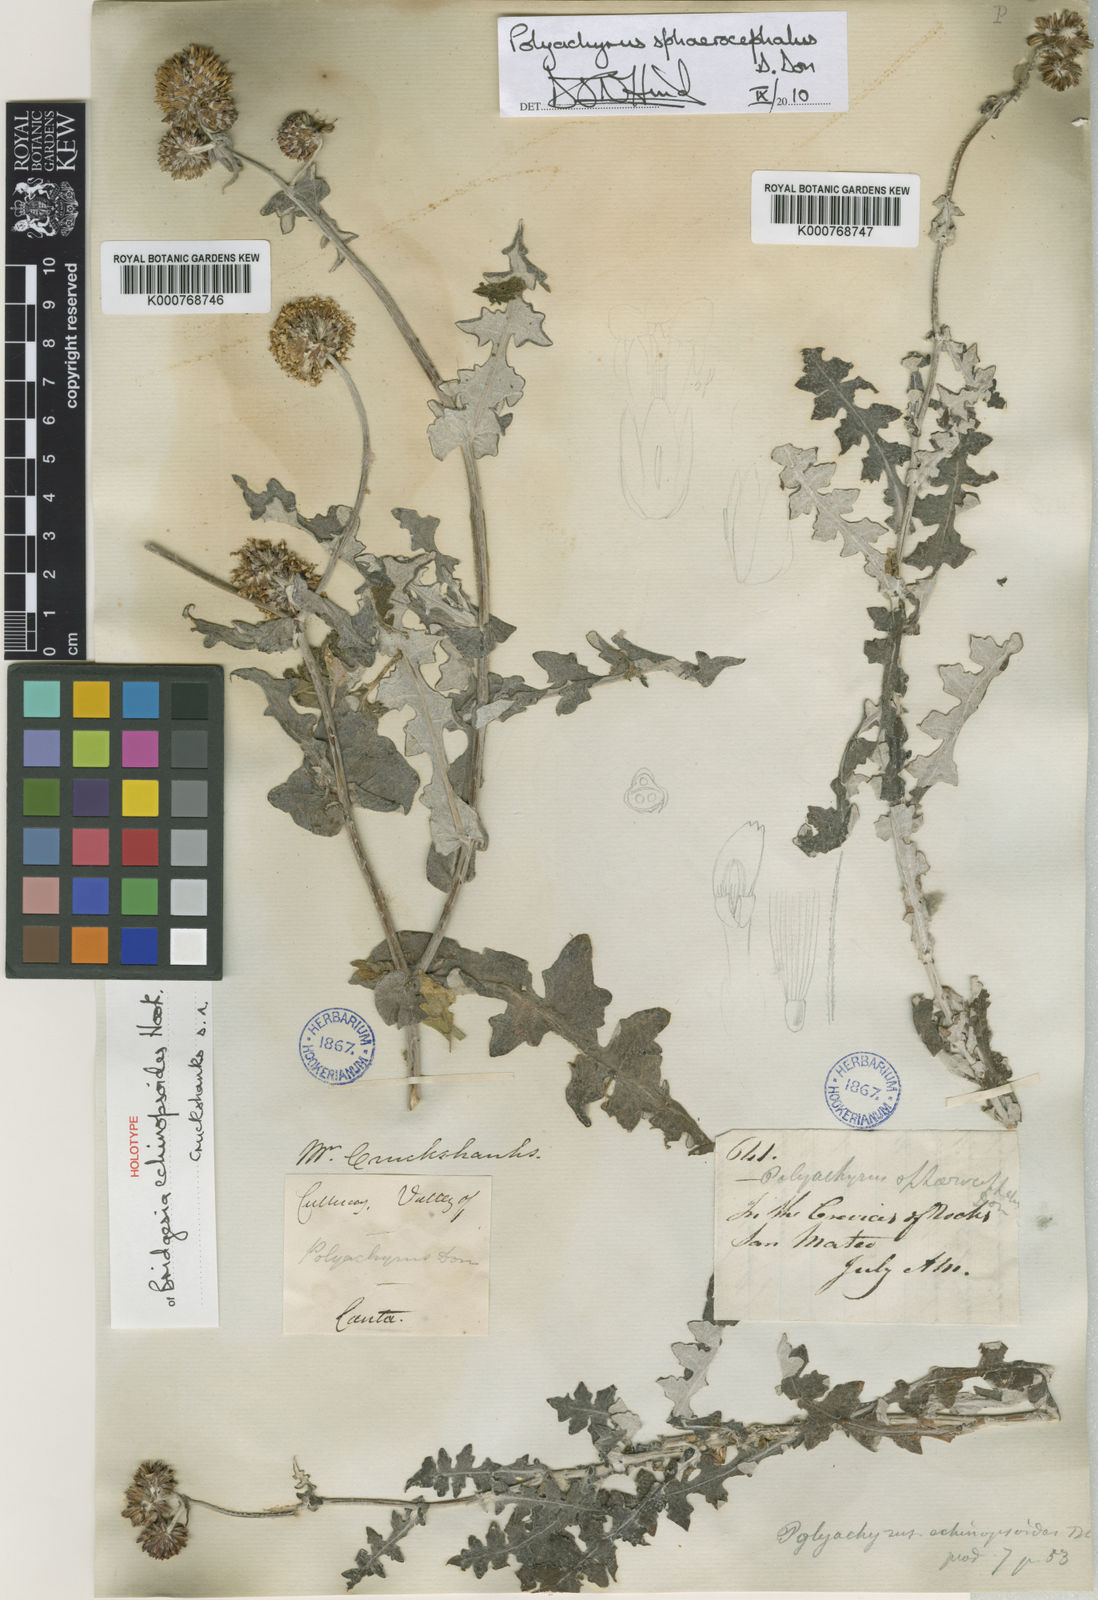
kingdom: Plantae
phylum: Tracheophyta
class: Magnoliopsida
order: Asterales
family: Asteraceae
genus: Polyachyrus
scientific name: Polyachyrus sphaerocephalus
